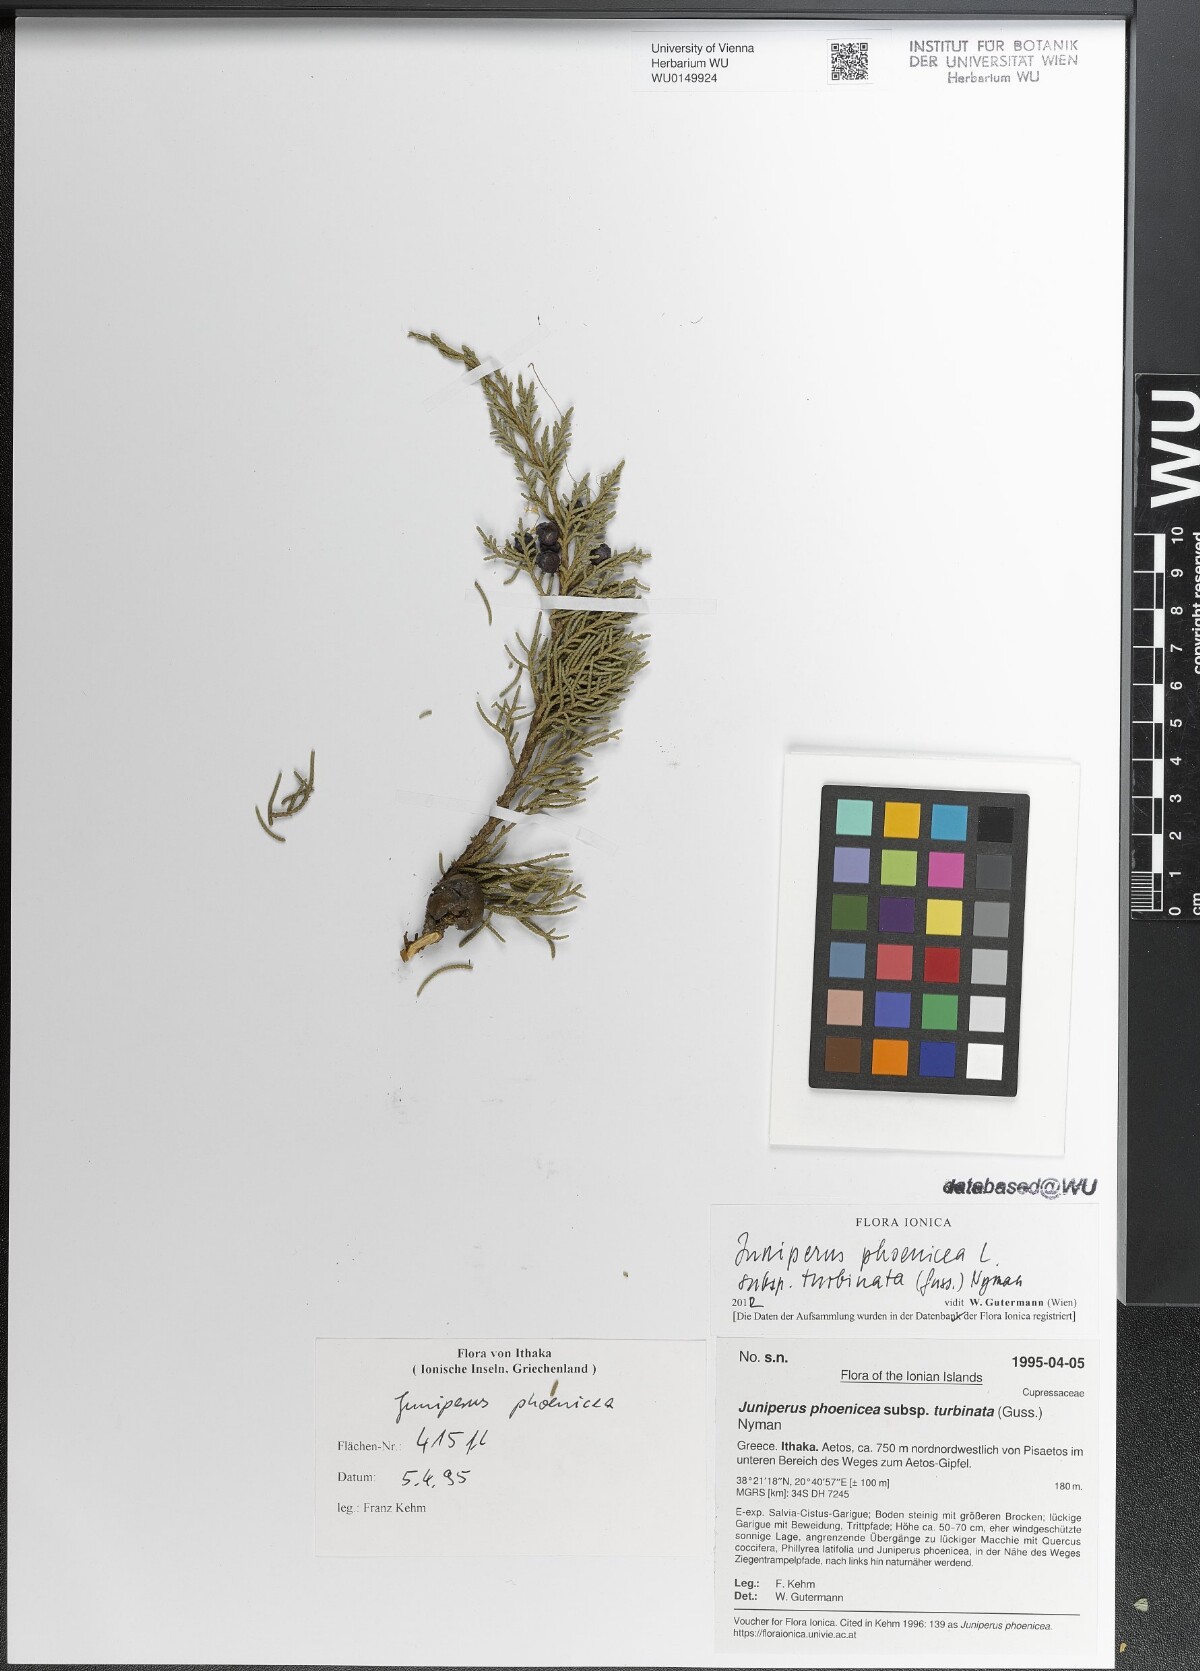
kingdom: Plantae
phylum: Tracheophyta
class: Pinopsida
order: Pinales
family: Cupressaceae
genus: Juniperus
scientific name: Juniperus phoenicea
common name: Phoenician juniper
